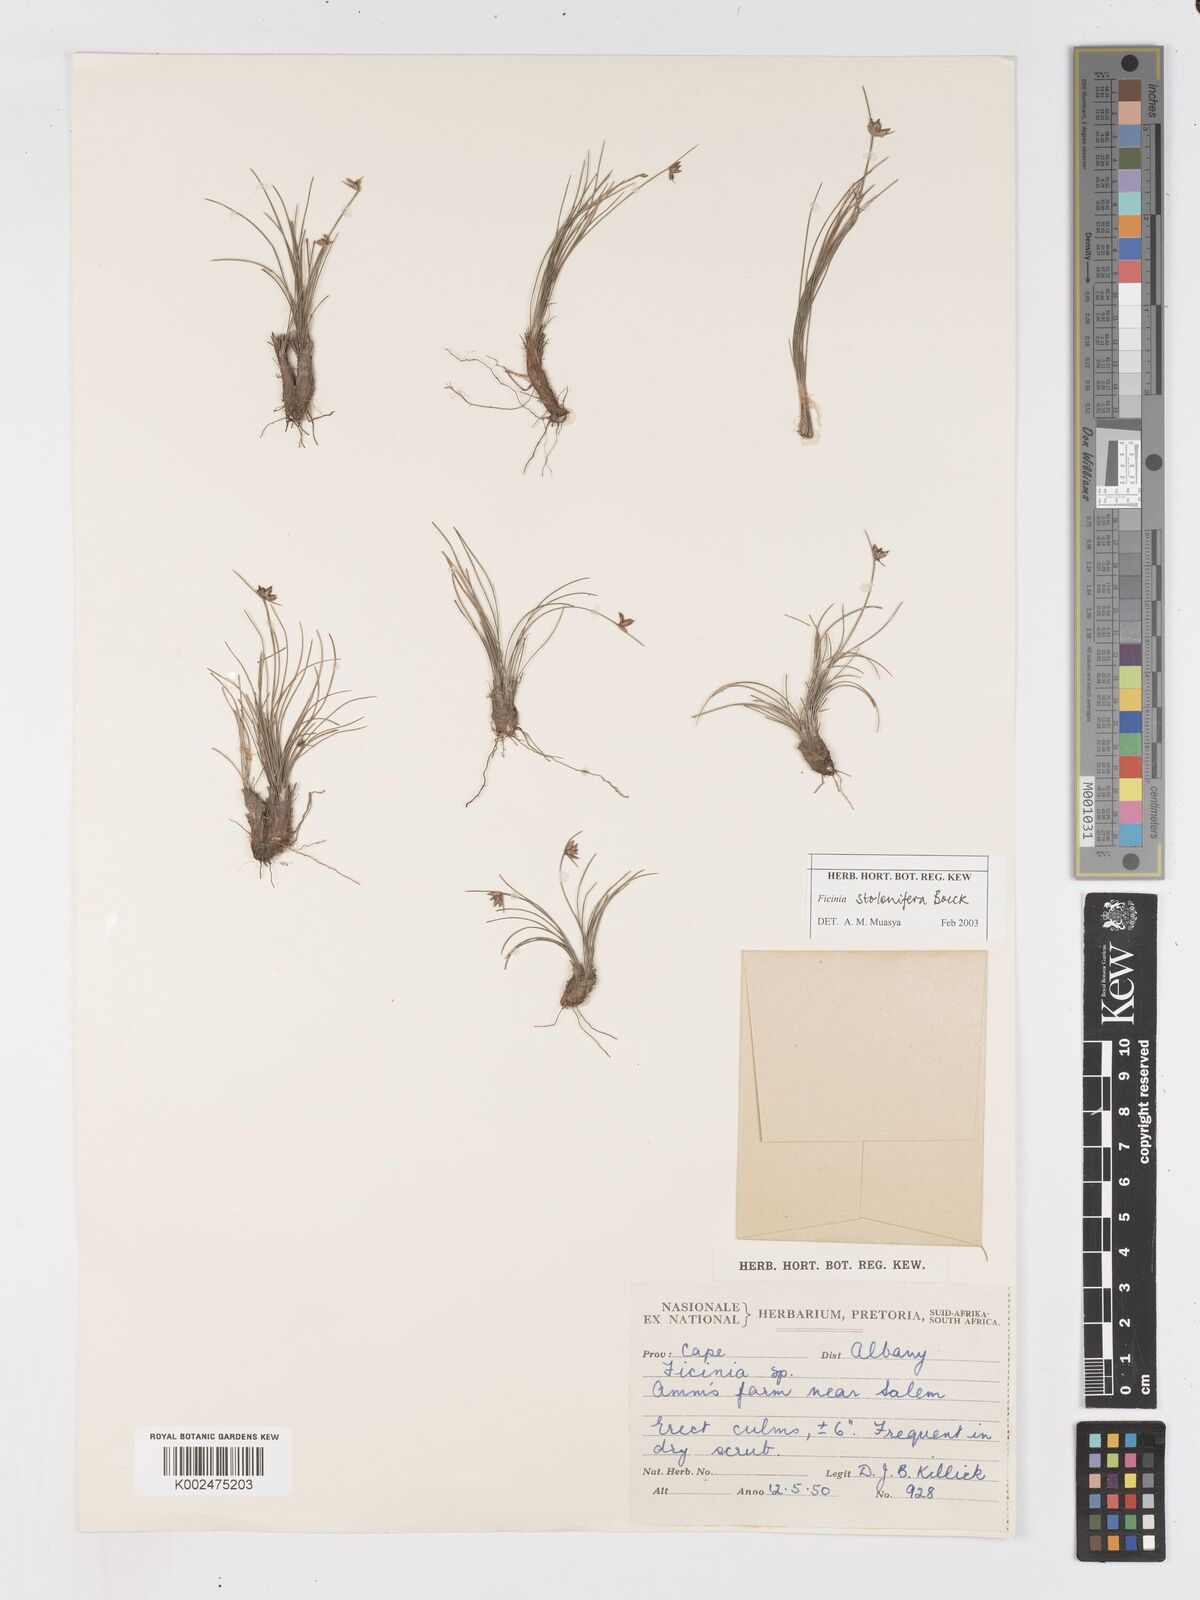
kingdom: Plantae
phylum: Tracheophyta
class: Liliopsida
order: Poales
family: Cyperaceae
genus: Ficinia
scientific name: Ficinia stolonifera
